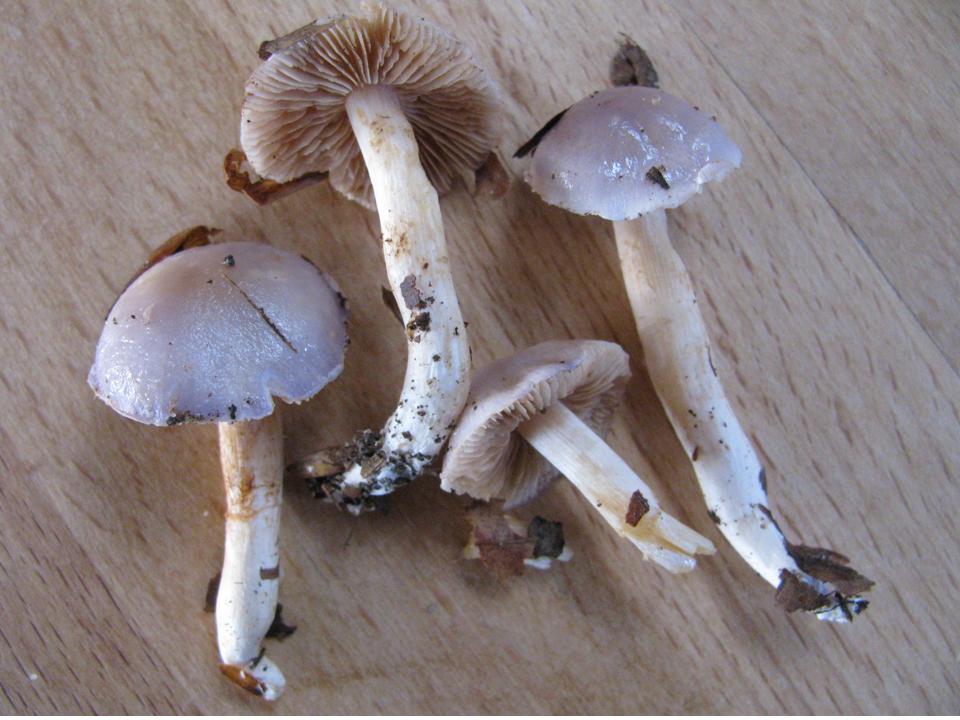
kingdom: Fungi
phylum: Basidiomycota
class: Agaricomycetes
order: Agaricales
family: Cortinariaceae
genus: Thaxterogaster
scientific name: Thaxterogaster croceocoeruleus
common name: blågullig slørhat
